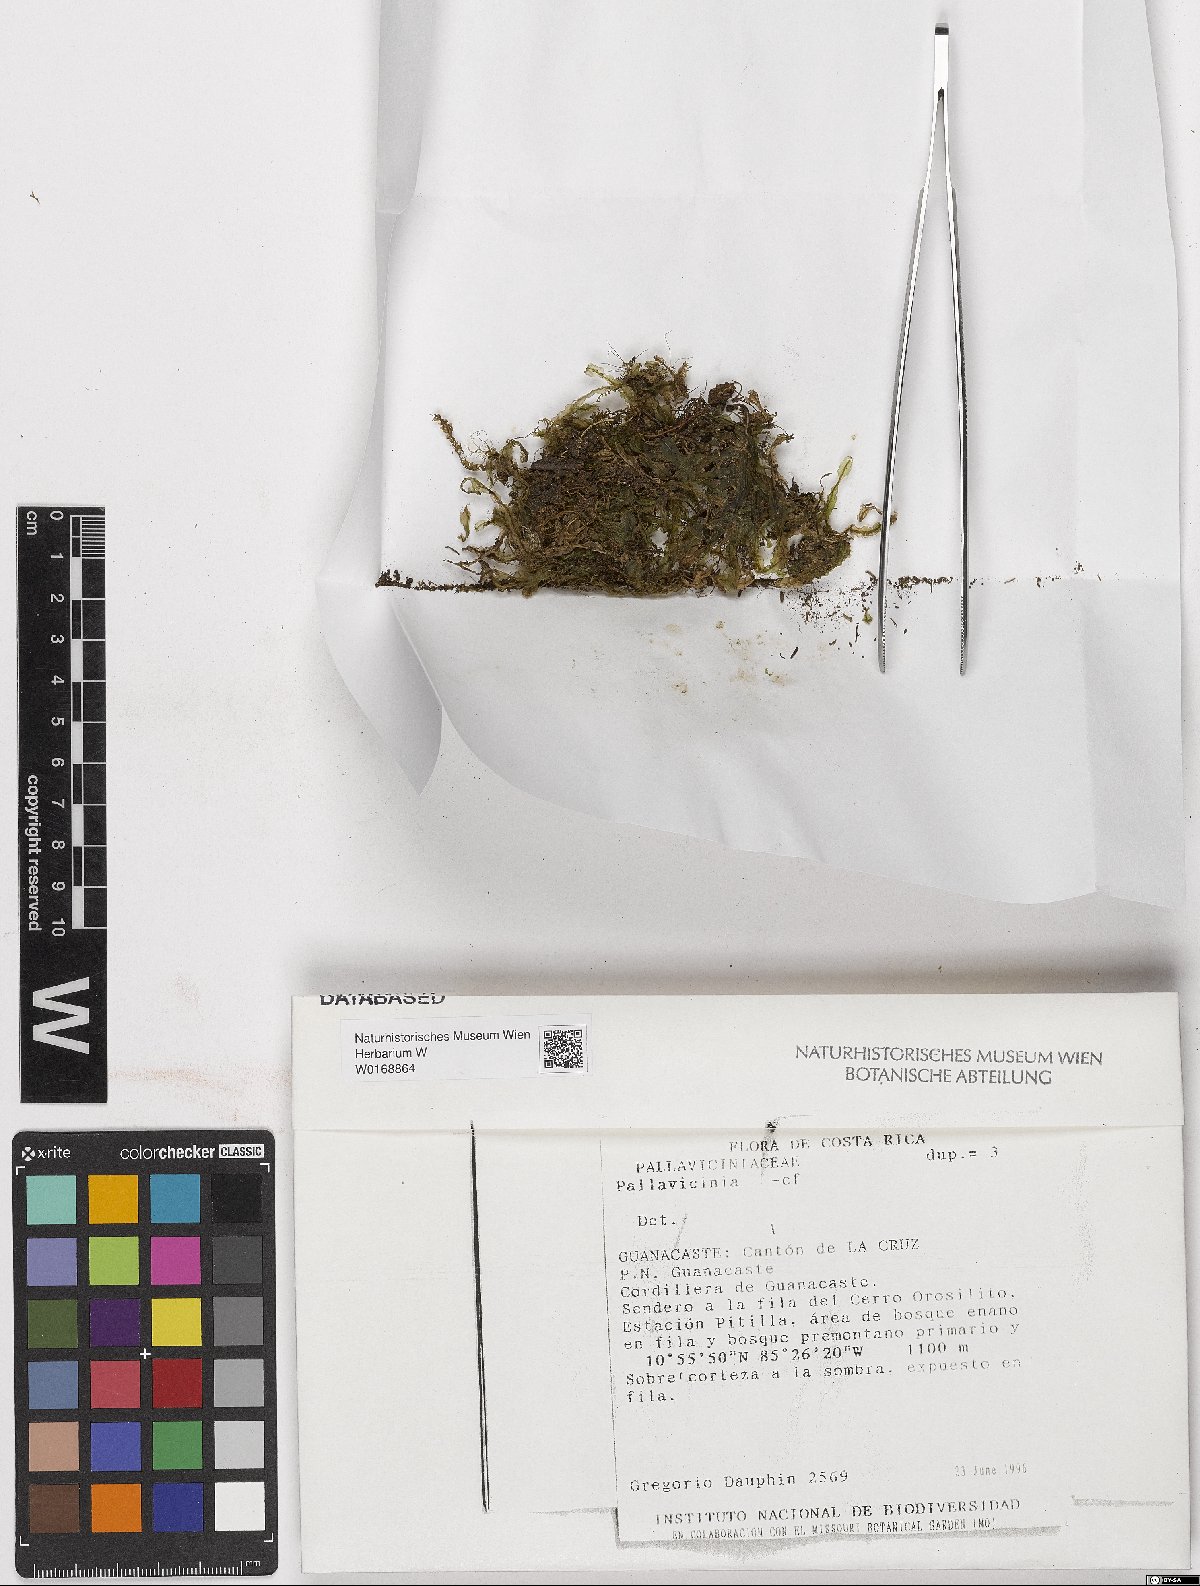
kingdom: Plantae
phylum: Tracheophyta
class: Magnoliopsida
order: Solanales
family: Solanaceae
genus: Solanum
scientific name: Solanum
